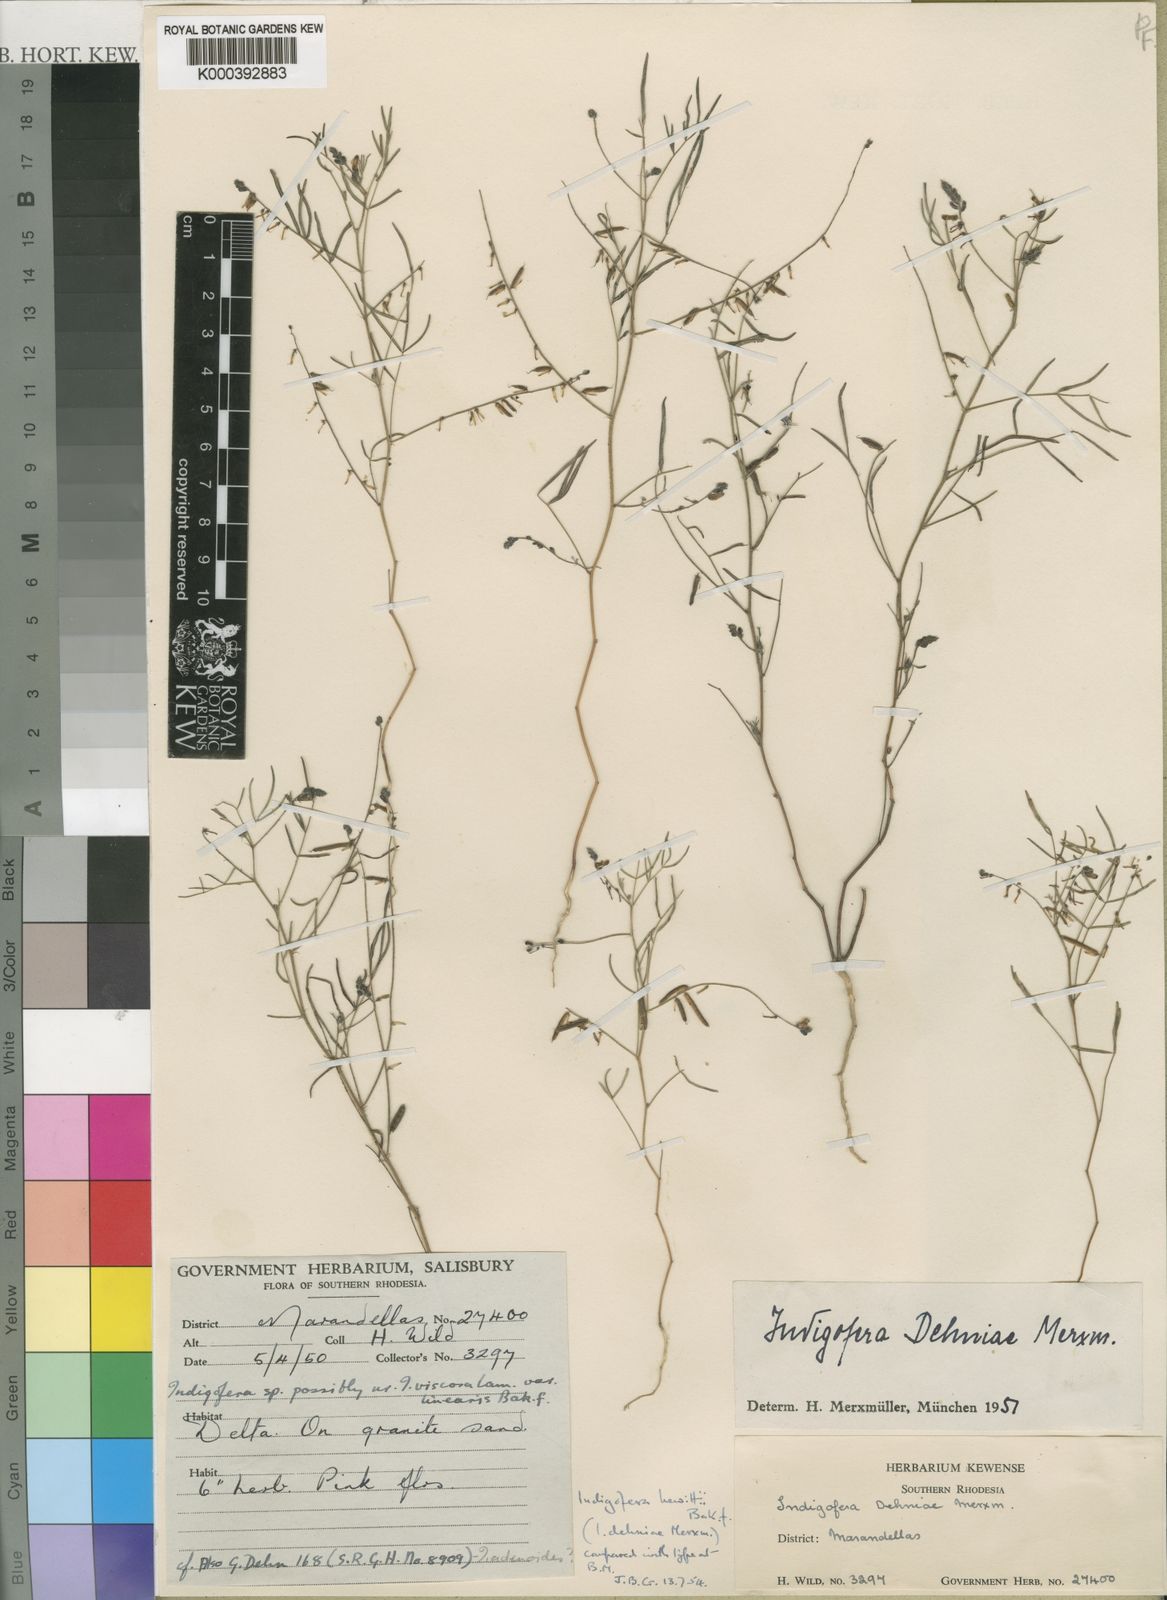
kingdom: Plantae
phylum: Tracheophyta
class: Magnoliopsida
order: Fabales
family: Fabaceae
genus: Indigofera
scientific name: Indigofera hewittii
